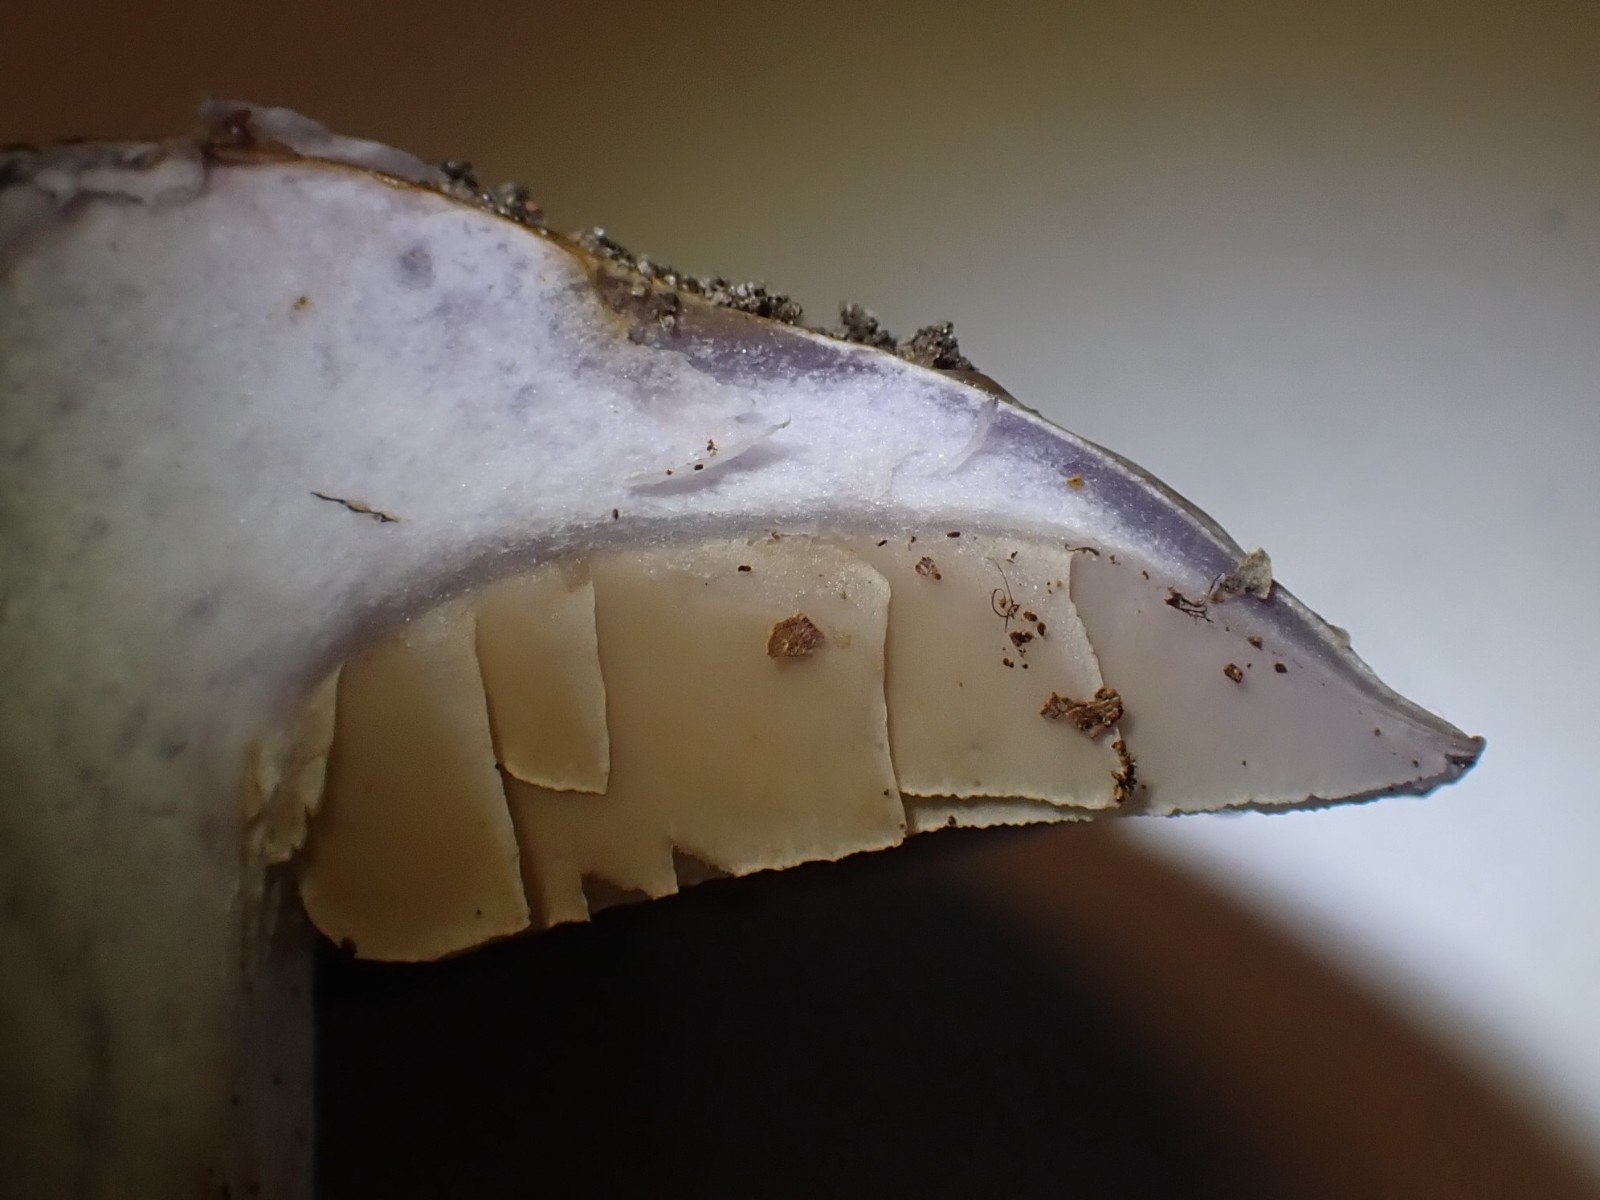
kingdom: Fungi
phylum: Basidiomycota
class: Agaricomycetes
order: Agaricales
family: Cortinariaceae
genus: Cortinarius
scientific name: Cortinarius largus
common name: violetrandet slørhat
